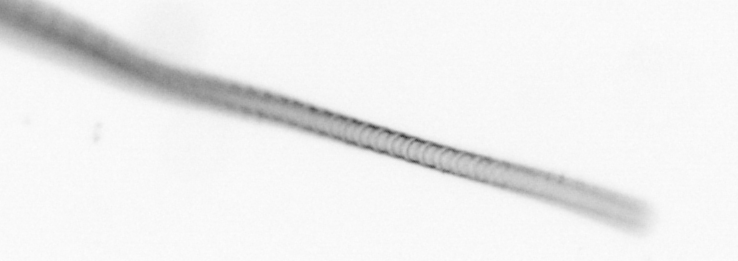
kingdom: Chromista
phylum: Ochrophyta
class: Bacillariophyceae
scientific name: Bacillariophyceae
